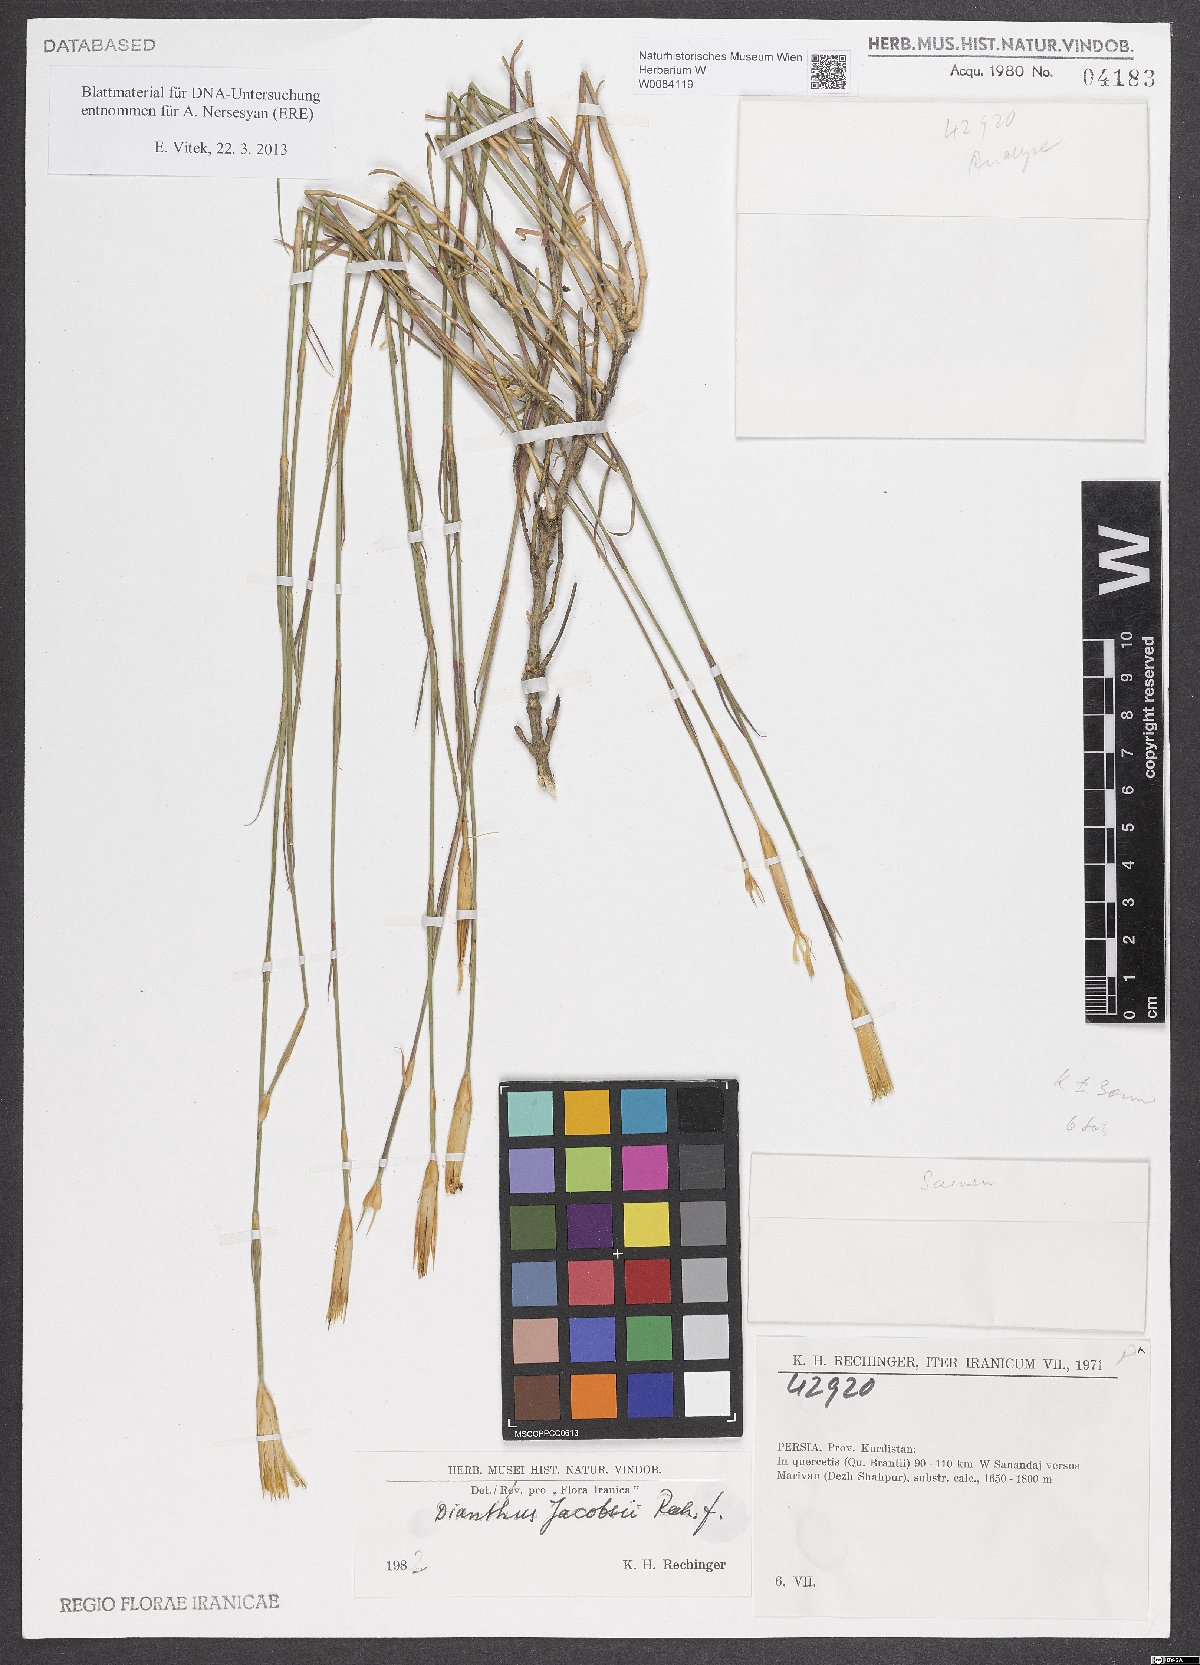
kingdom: Plantae
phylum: Tracheophyta
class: Magnoliopsida
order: Caryophyllales
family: Caryophyllaceae
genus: Dianthus
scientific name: Dianthus jacobsii
